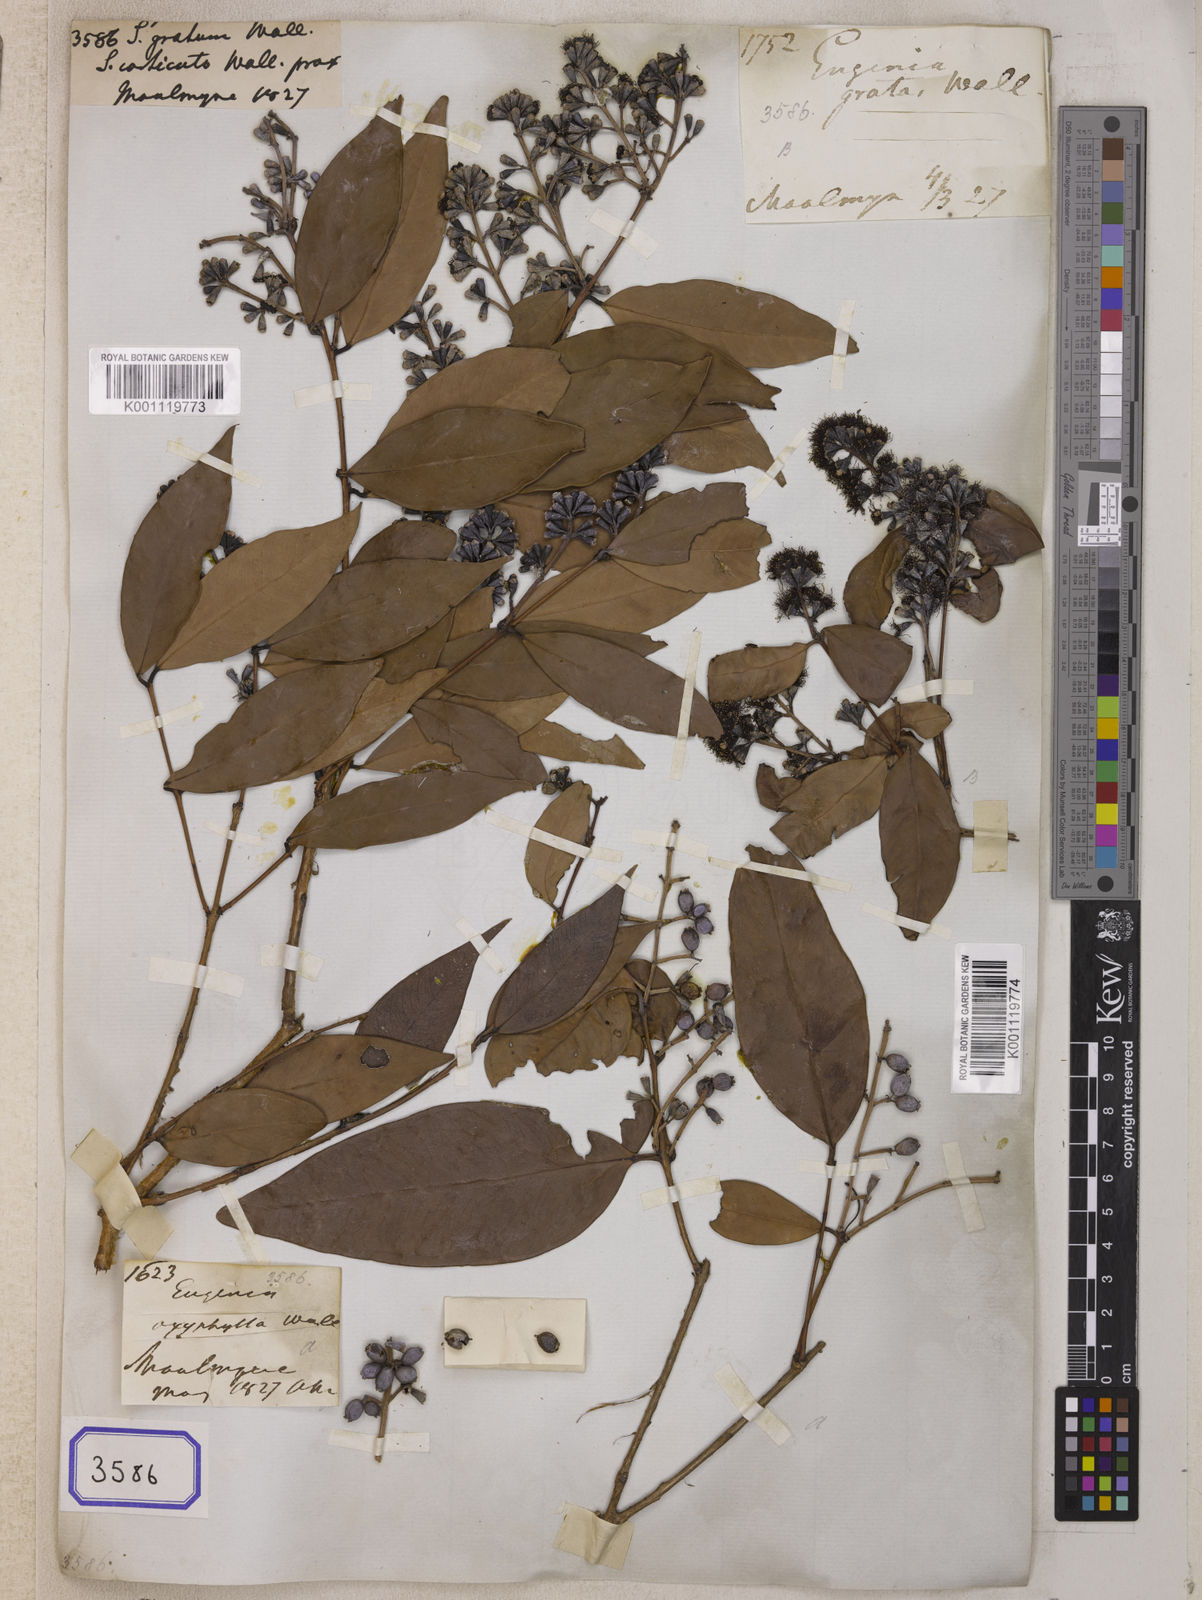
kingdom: Plantae
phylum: Tracheophyta
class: Magnoliopsida
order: Myrtales
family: Myrtaceae
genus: Syzygium
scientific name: Syzygium
